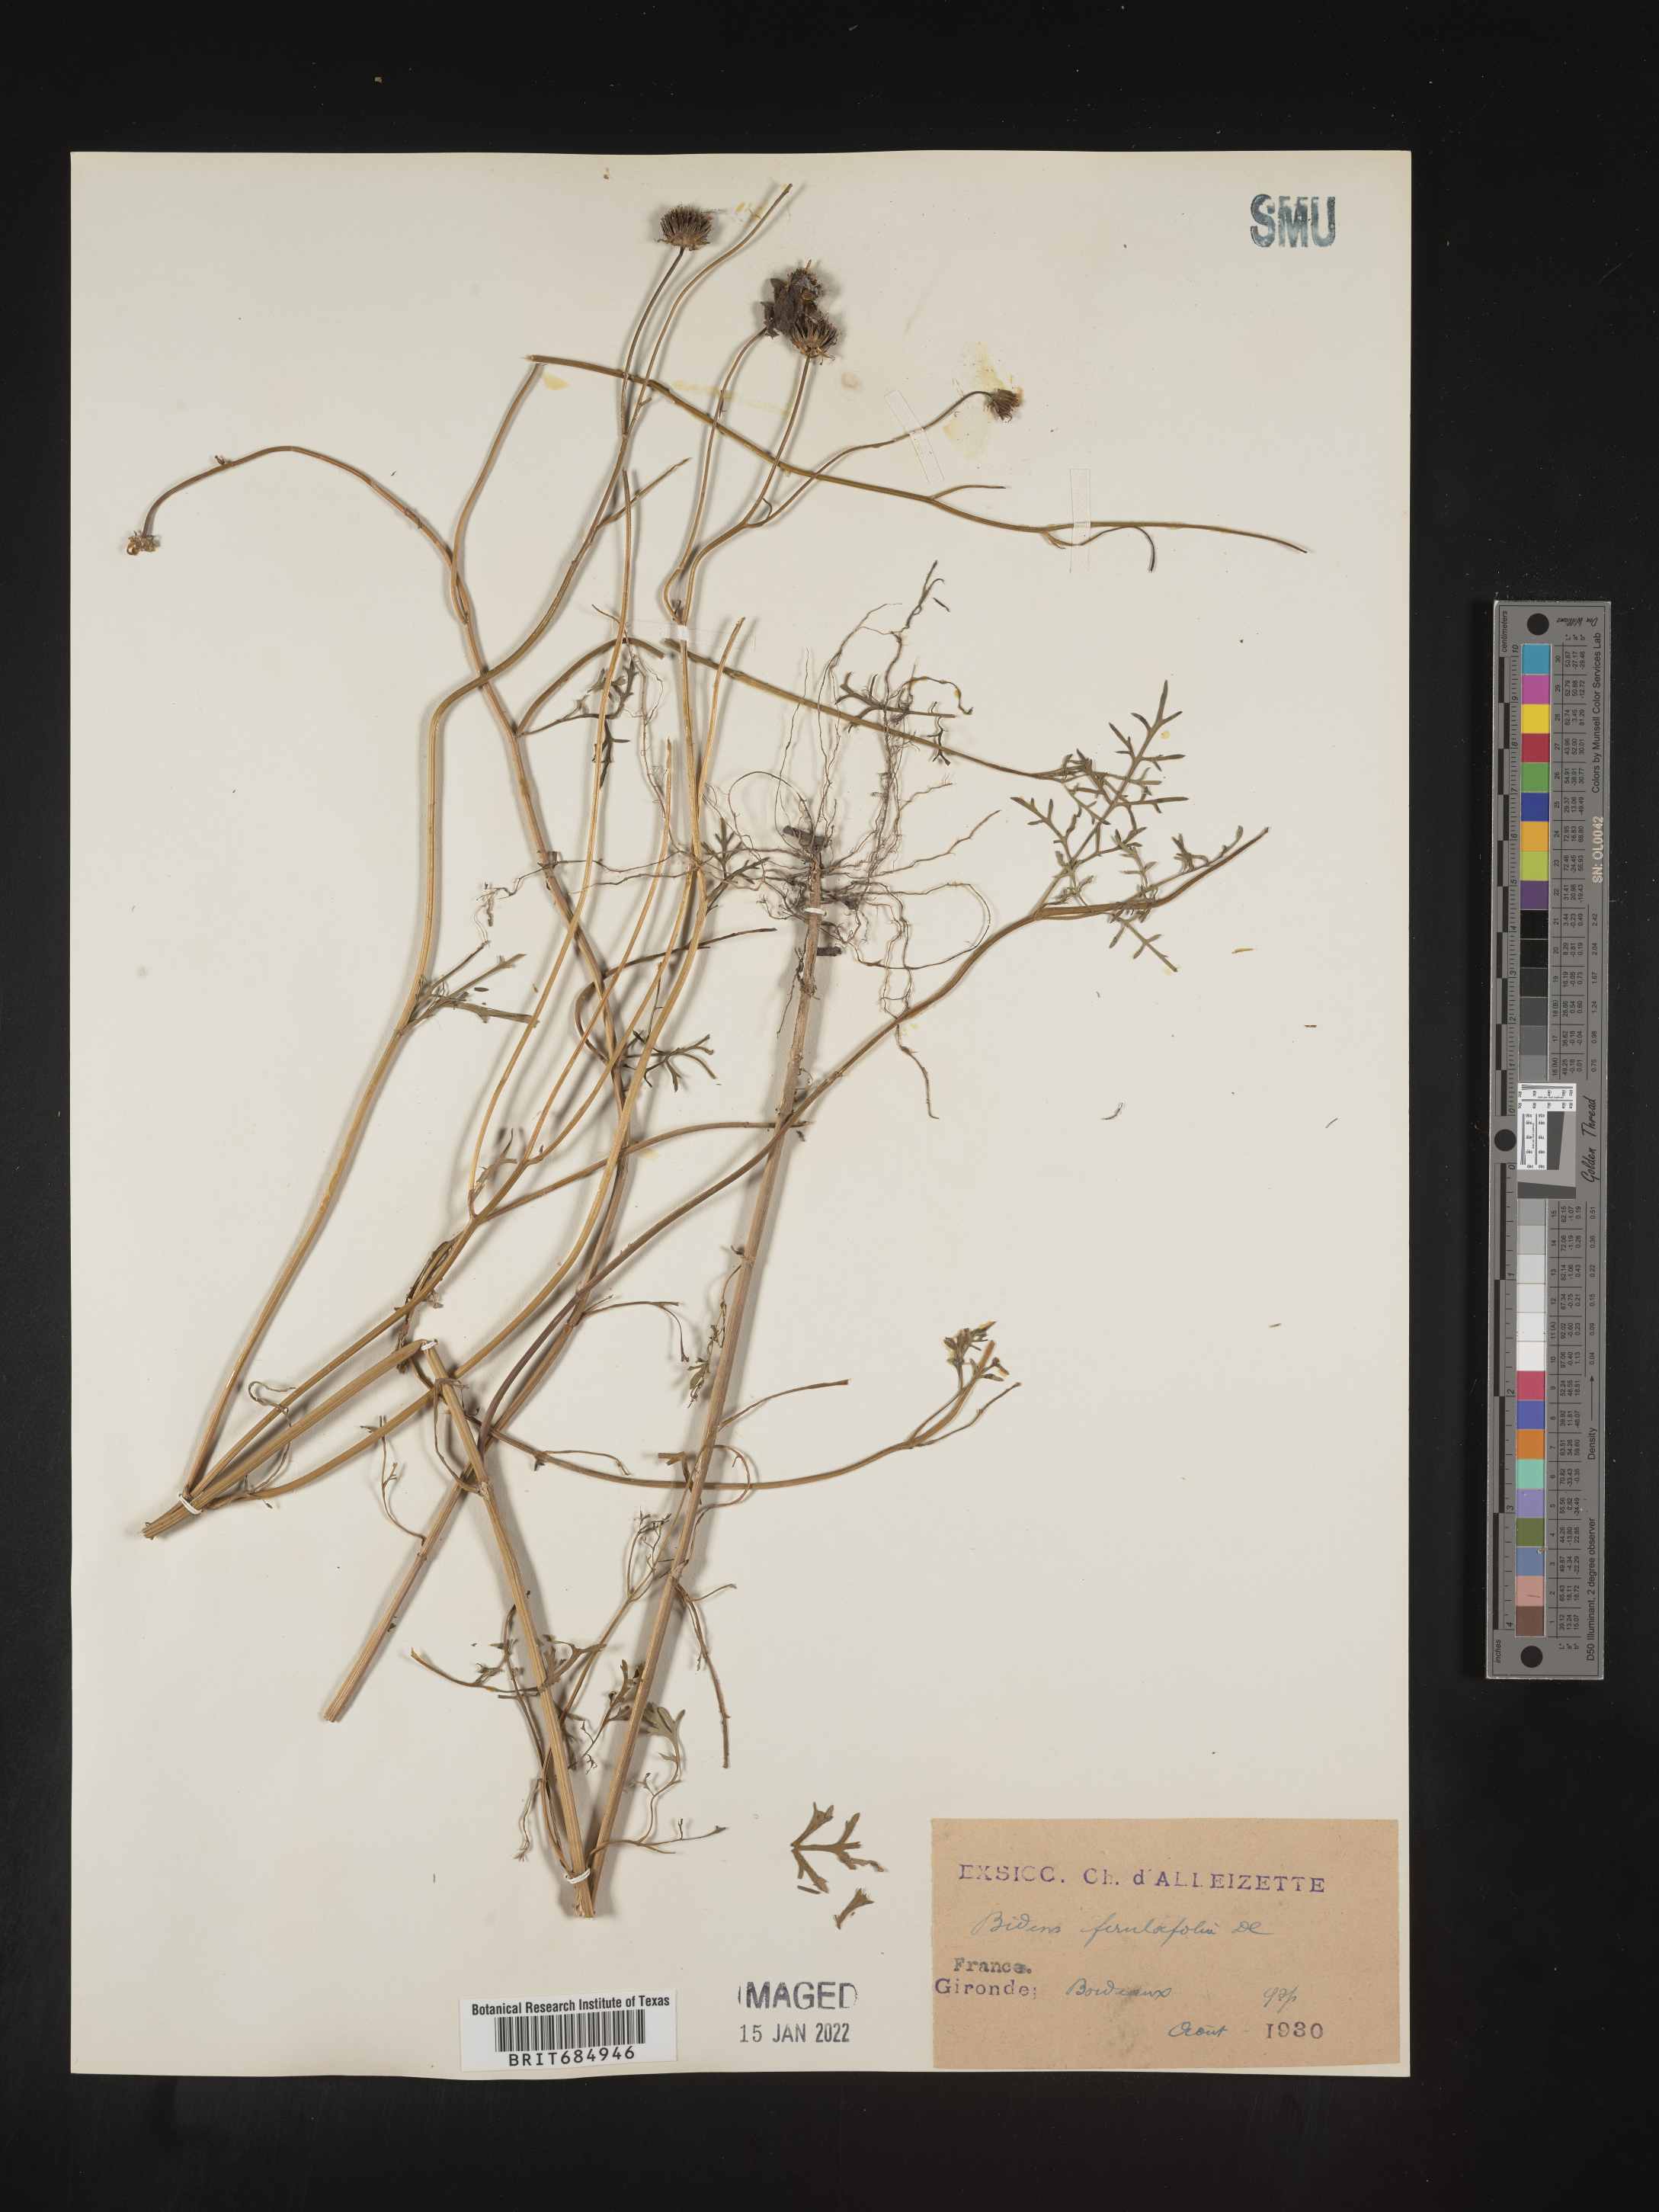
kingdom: Plantae
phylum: Tracheophyta
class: Magnoliopsida
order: Asterales
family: Asteraceae
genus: Bidens
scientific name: Bidens
